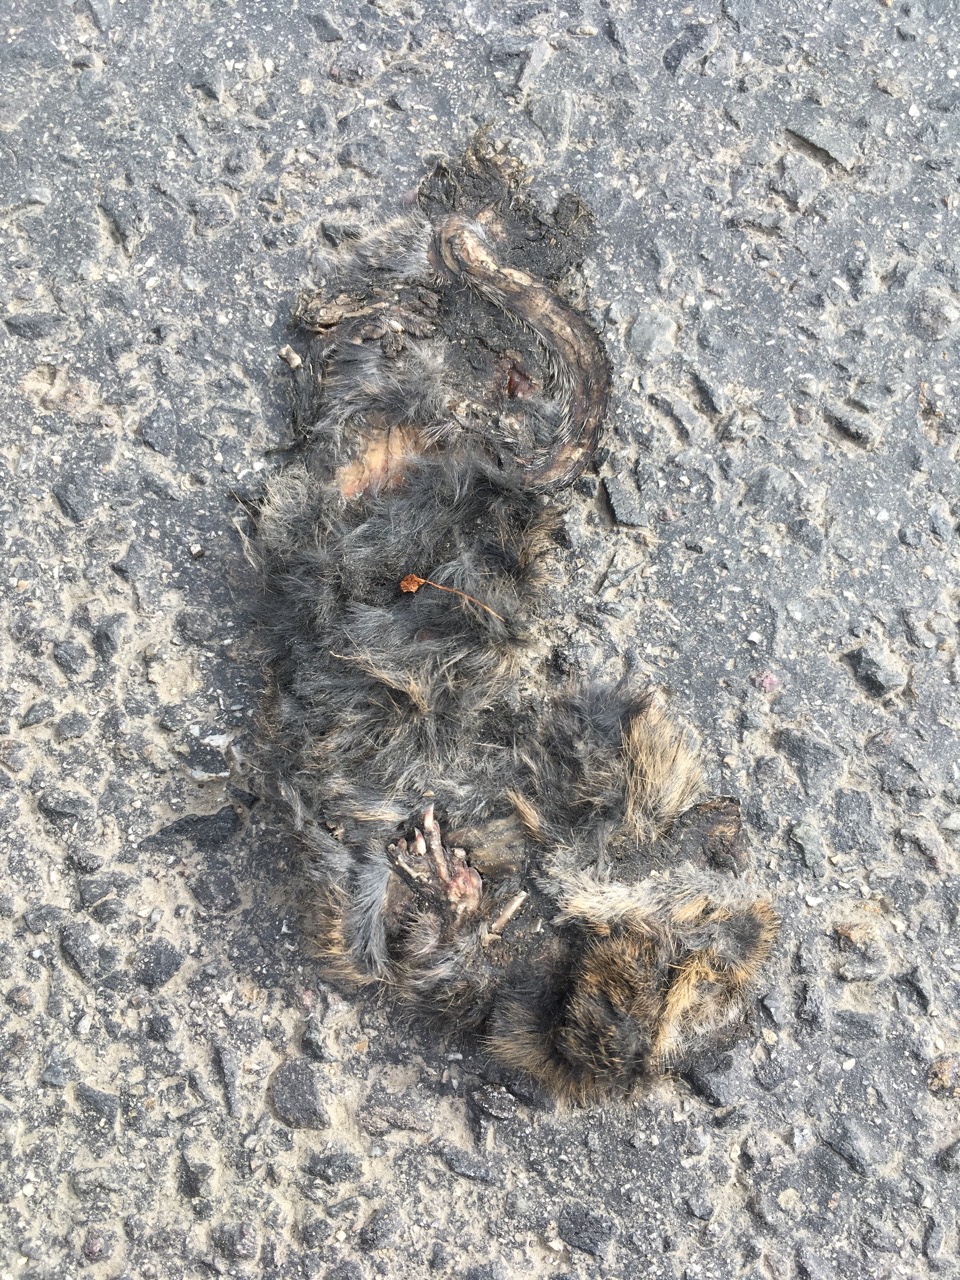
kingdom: Animalia
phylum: Chordata
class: Mammalia
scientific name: Mammalia
